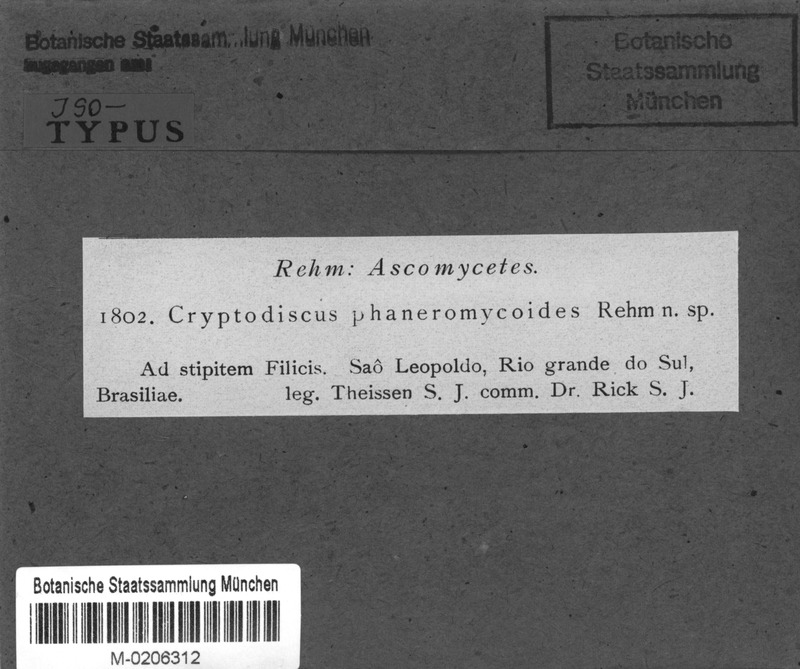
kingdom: Fungi
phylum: Ascomycota
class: Lecanoromycetes
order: Ostropales
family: Stictidaceae
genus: Cryptodiscus
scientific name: Cryptodiscus
